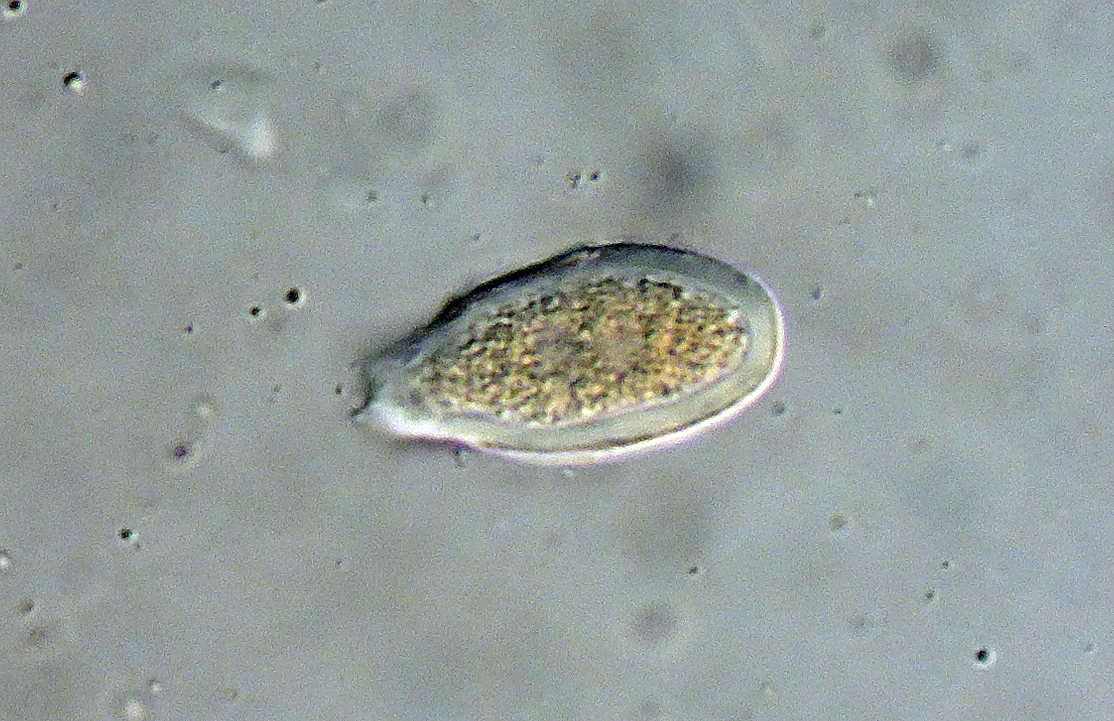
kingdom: Fungi
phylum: Basidiomycota
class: Pucciniomycetes
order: Pucciniales
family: Pucciniaceae
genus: Puccinia
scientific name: Puccinia obscura
